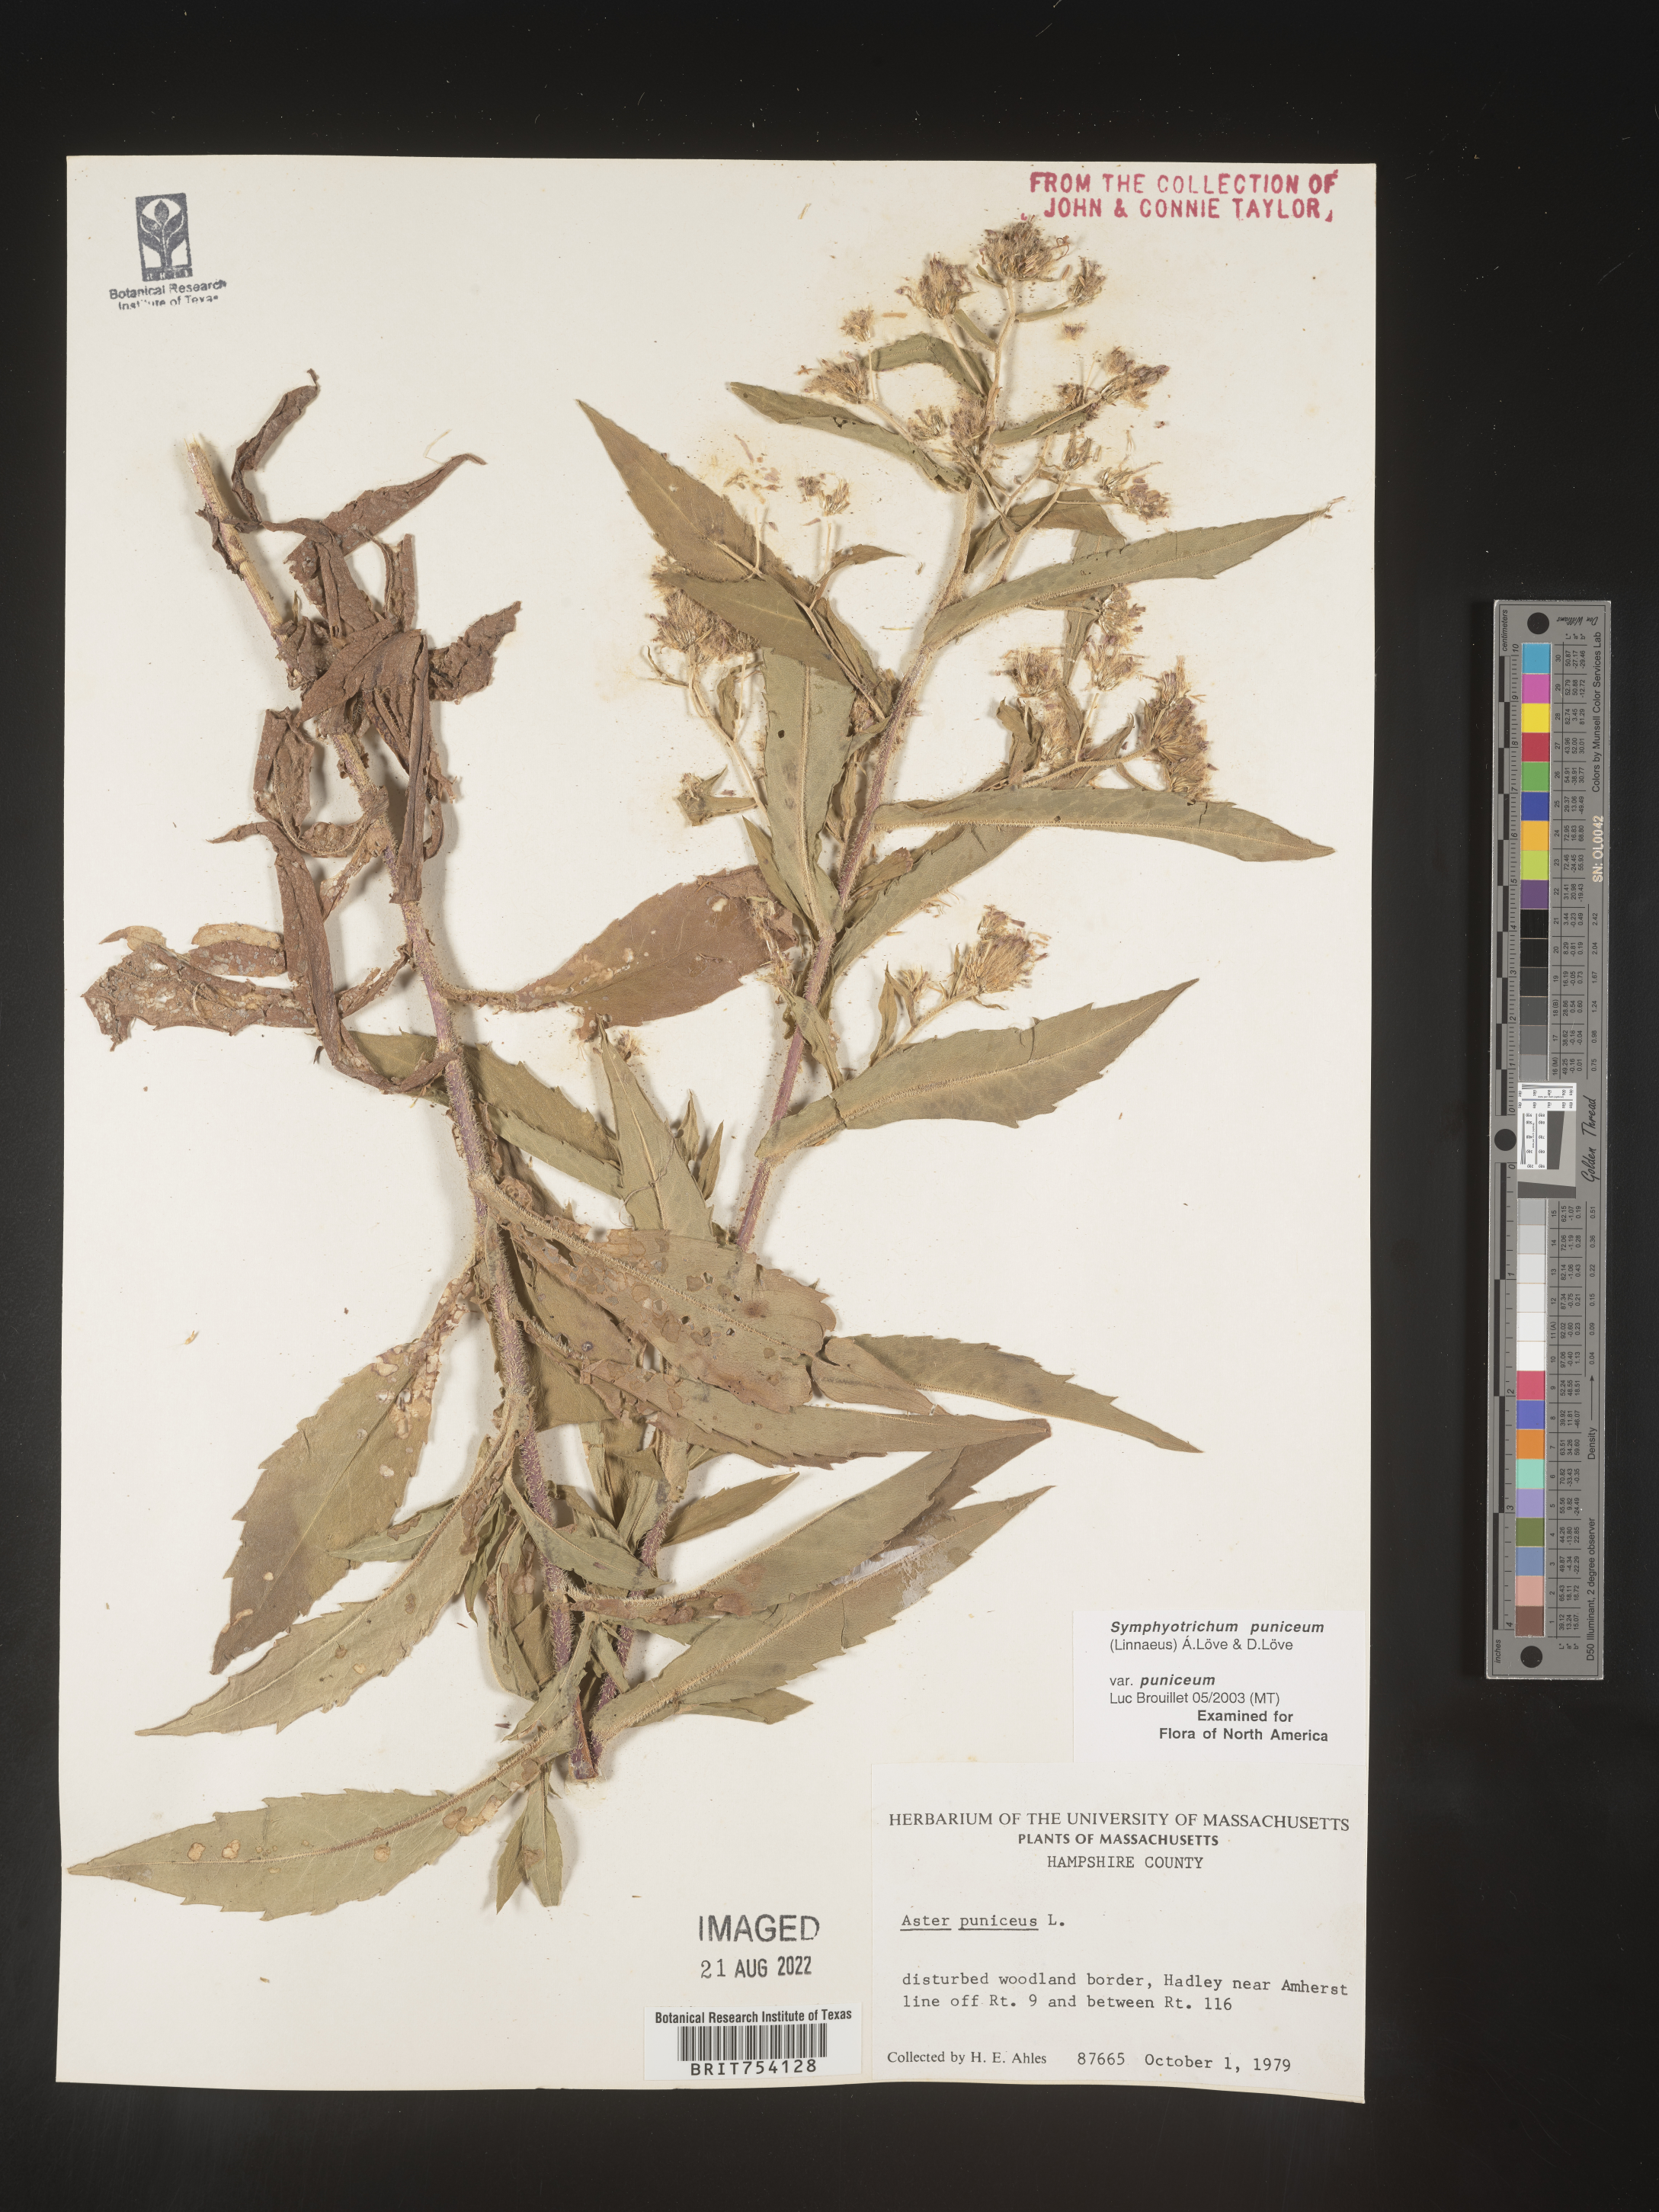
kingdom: Plantae
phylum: Tracheophyta
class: Magnoliopsida
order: Asterales
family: Asteraceae
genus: Symphyotrichum
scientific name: Symphyotrichum puniceum
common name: Bog aster
